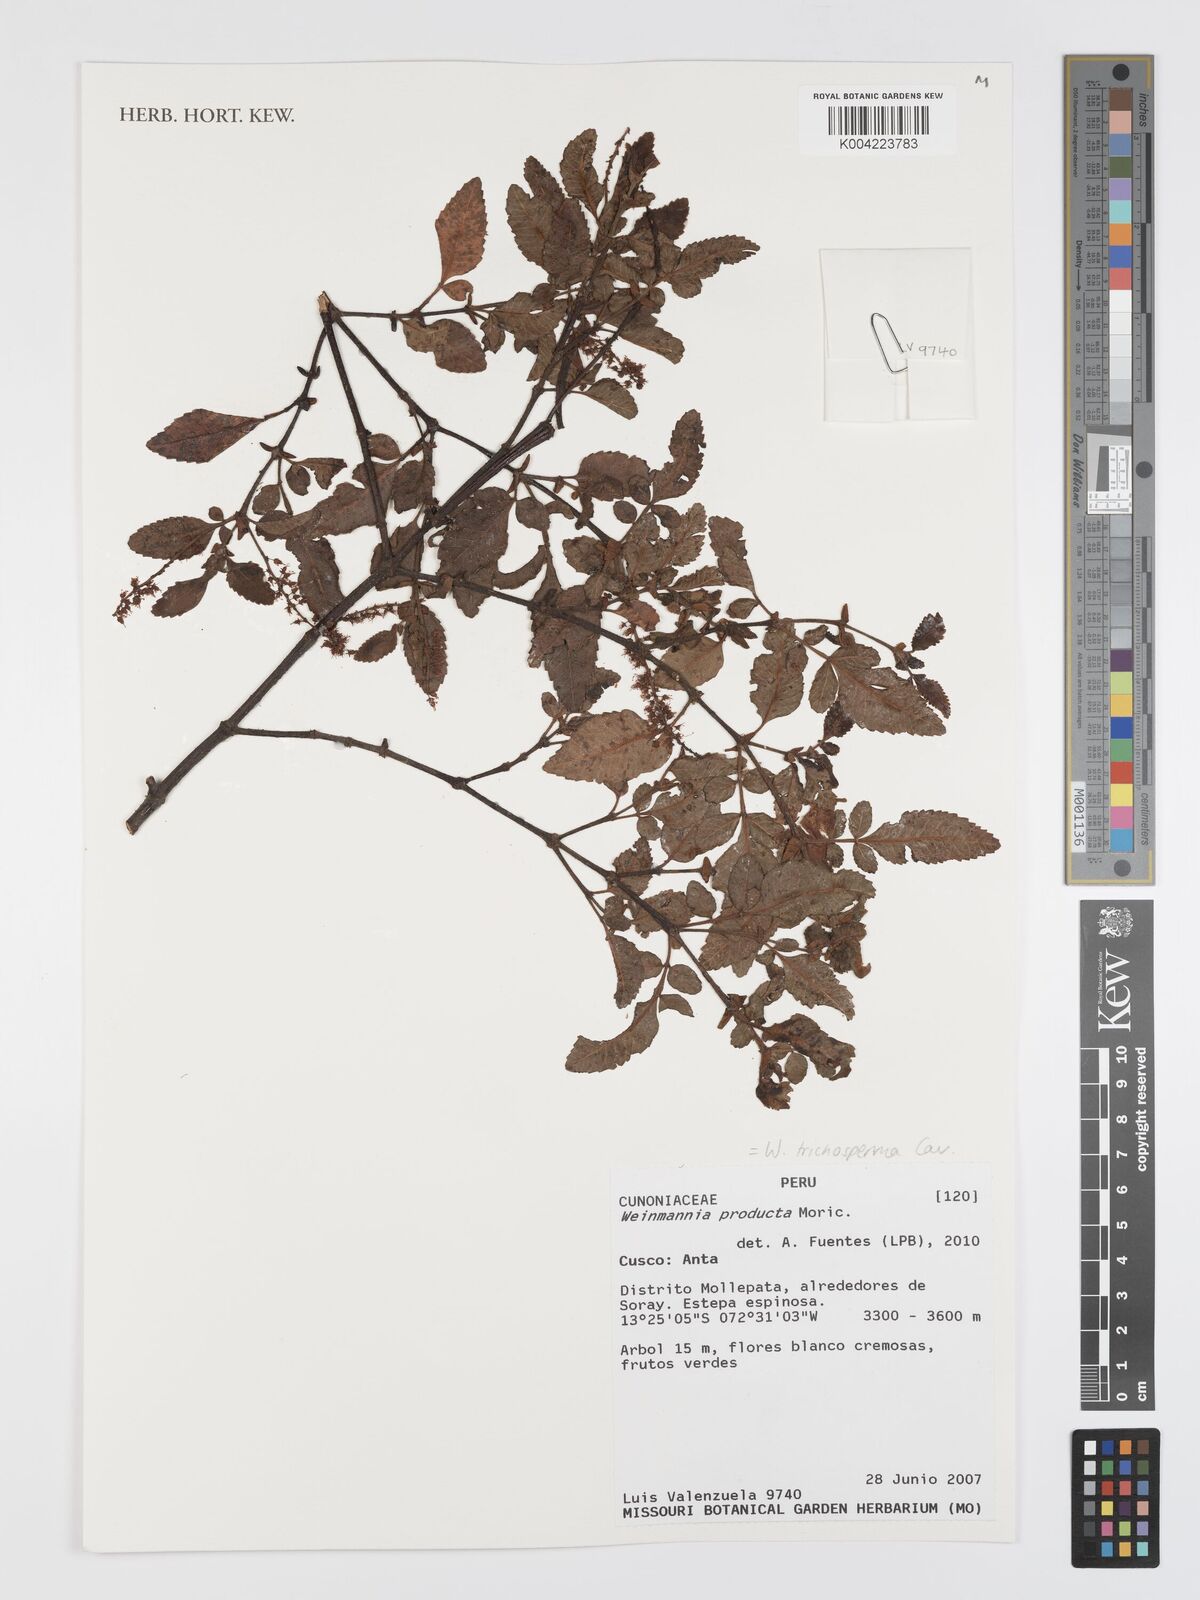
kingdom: Plantae
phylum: Tracheophyta
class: Magnoliopsida
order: Oxalidales
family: Cunoniaceae
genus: Weinmannia
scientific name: Weinmannia trichosperma
